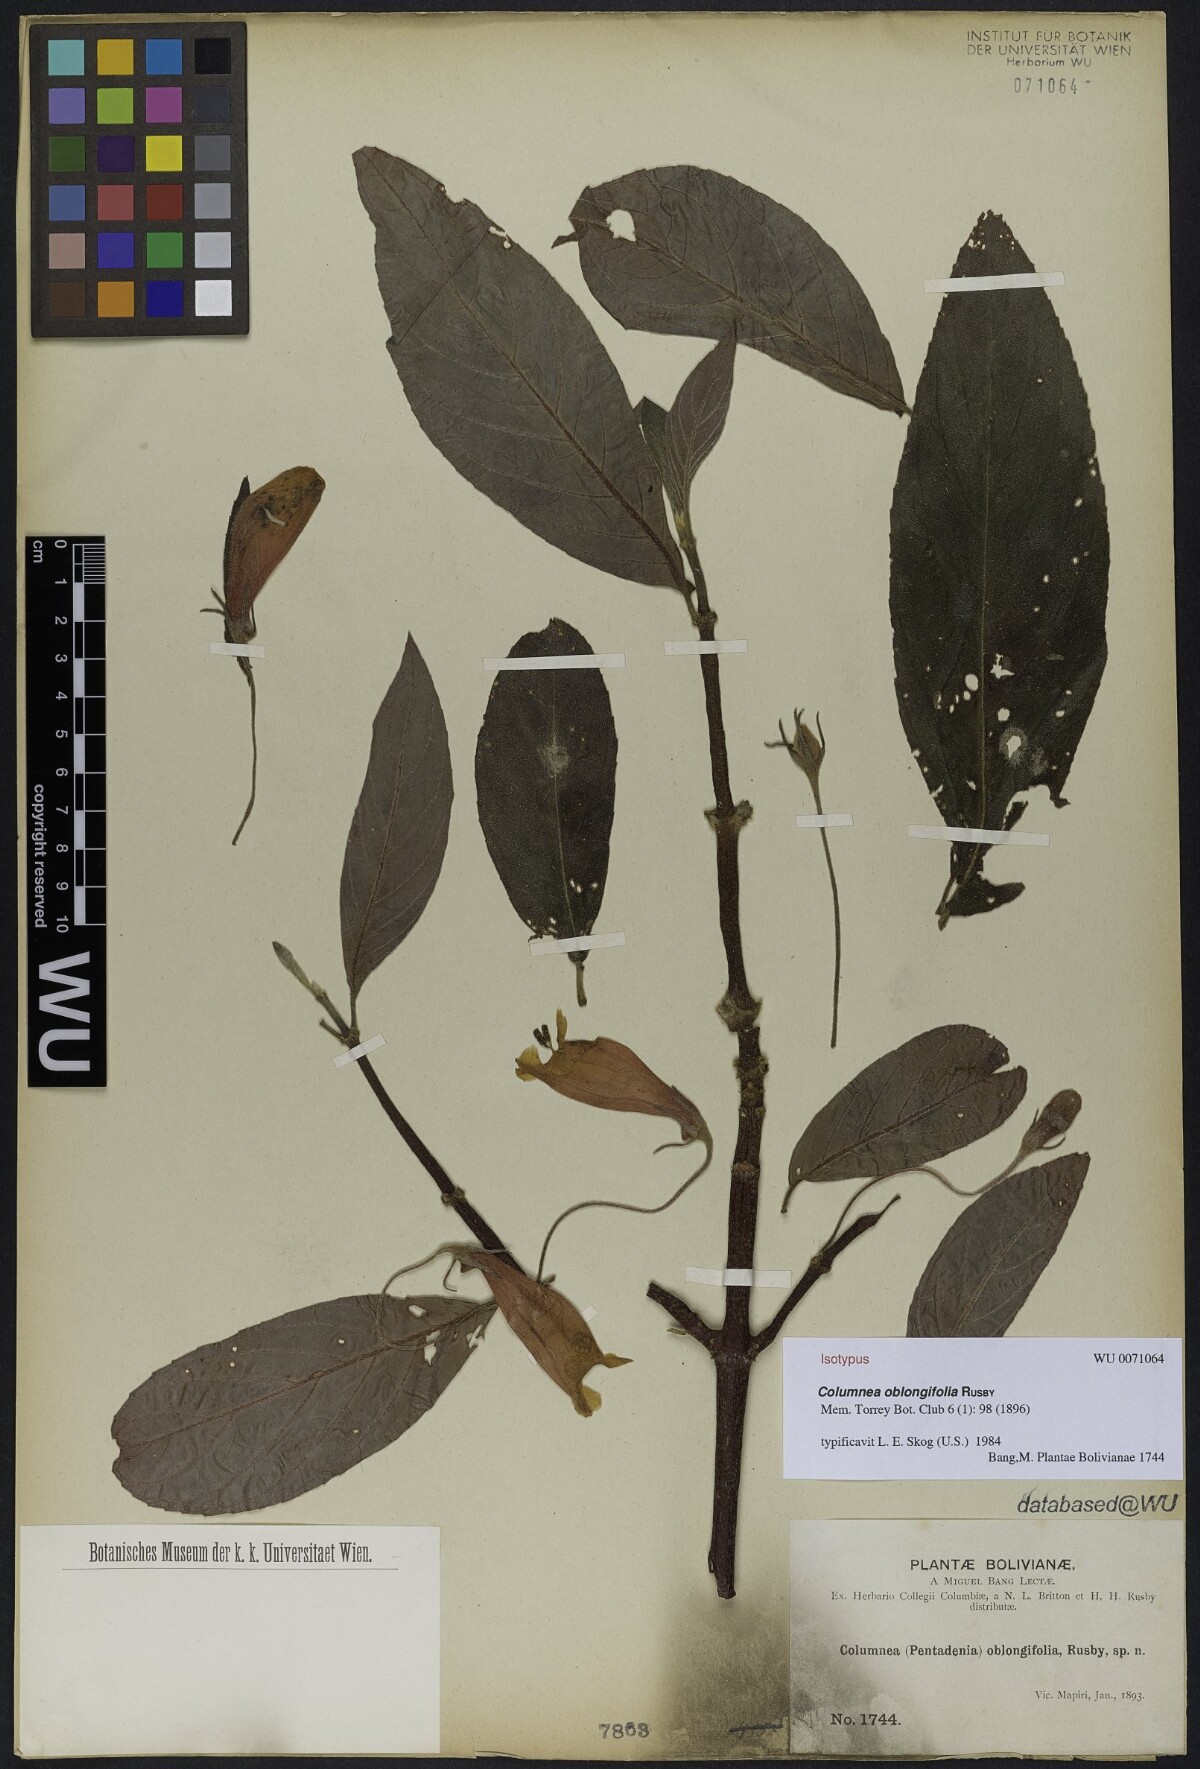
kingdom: Plantae
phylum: Tracheophyta
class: Magnoliopsida
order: Lamiales
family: Gesneriaceae
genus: Columnea
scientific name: Columnea oblongifolia
